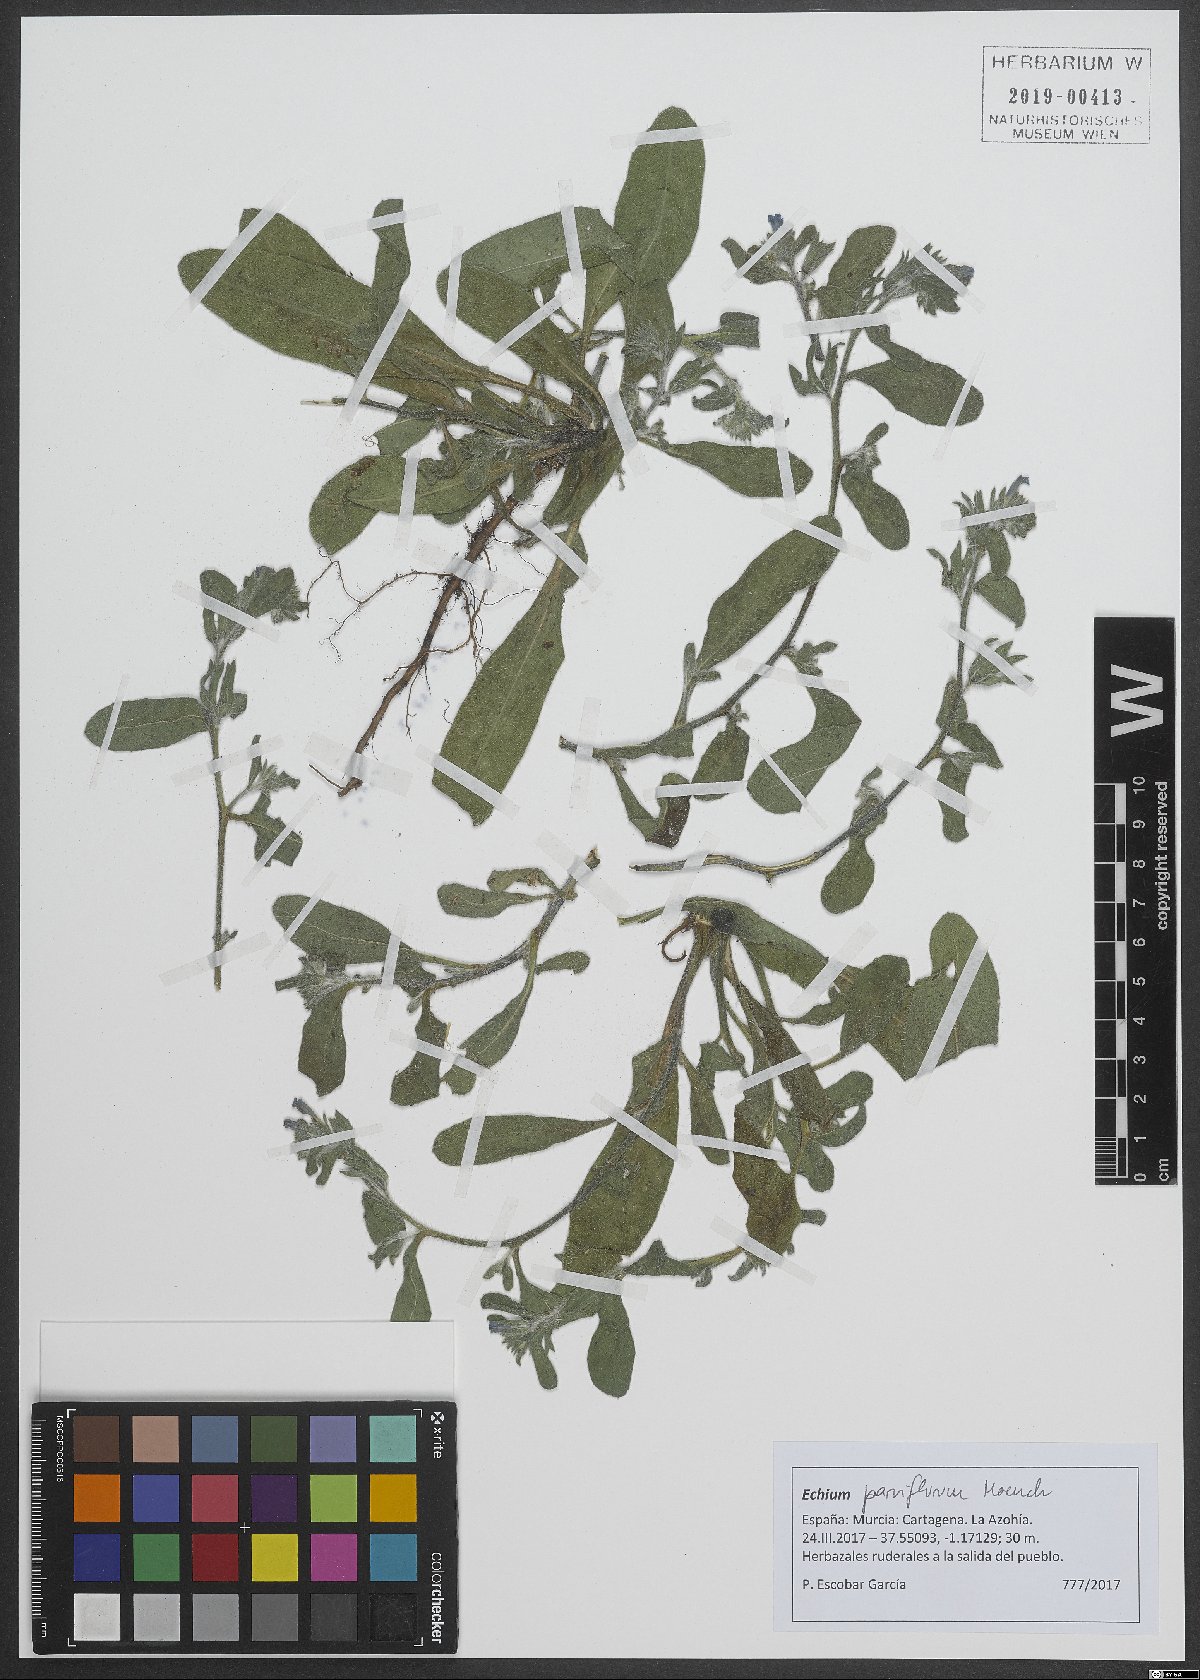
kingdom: Plantae
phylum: Tracheophyta
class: Magnoliopsida
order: Boraginales
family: Boraginaceae
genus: Echium
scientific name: Echium parviflorum
